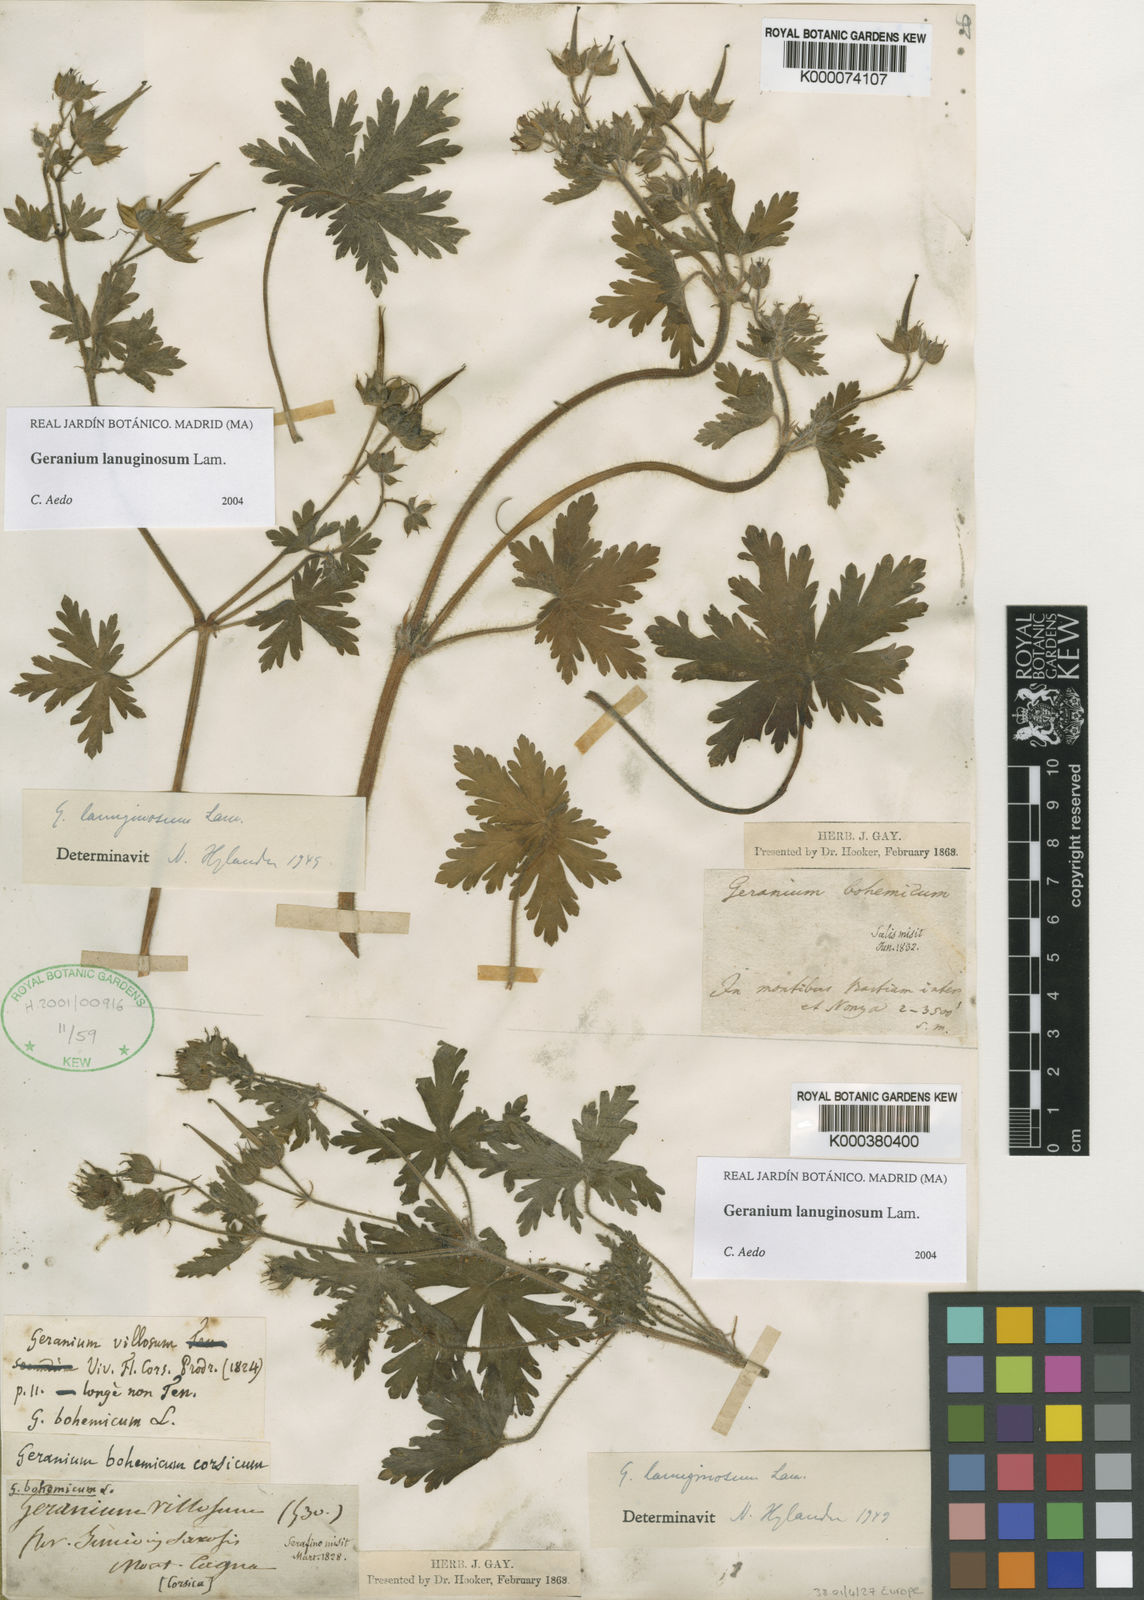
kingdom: Plantae
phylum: Tracheophyta
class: Magnoliopsida
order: Geraniales
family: Geraniaceae
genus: Geranium
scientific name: Geranium lanuginosum
